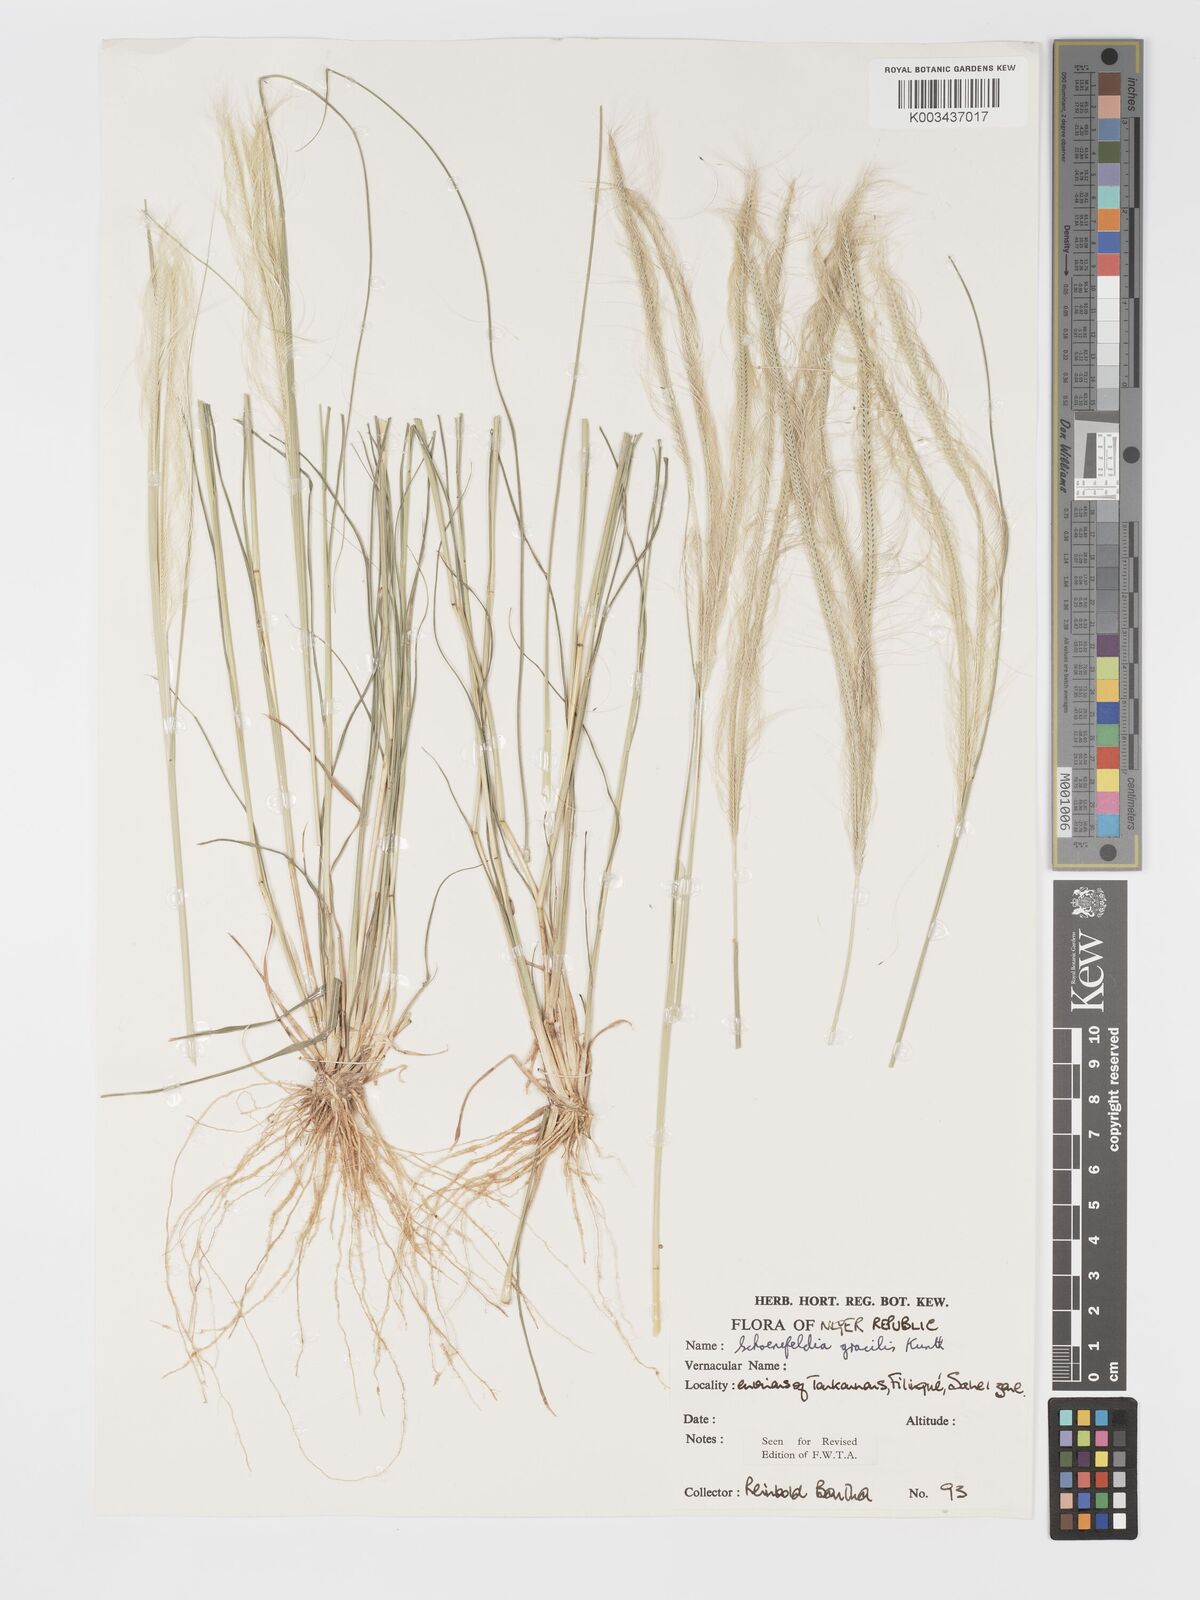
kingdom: Plantae
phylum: Tracheophyta
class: Liliopsida
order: Poales
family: Poaceae
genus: Schoenefeldia
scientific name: Schoenefeldia gracilis
